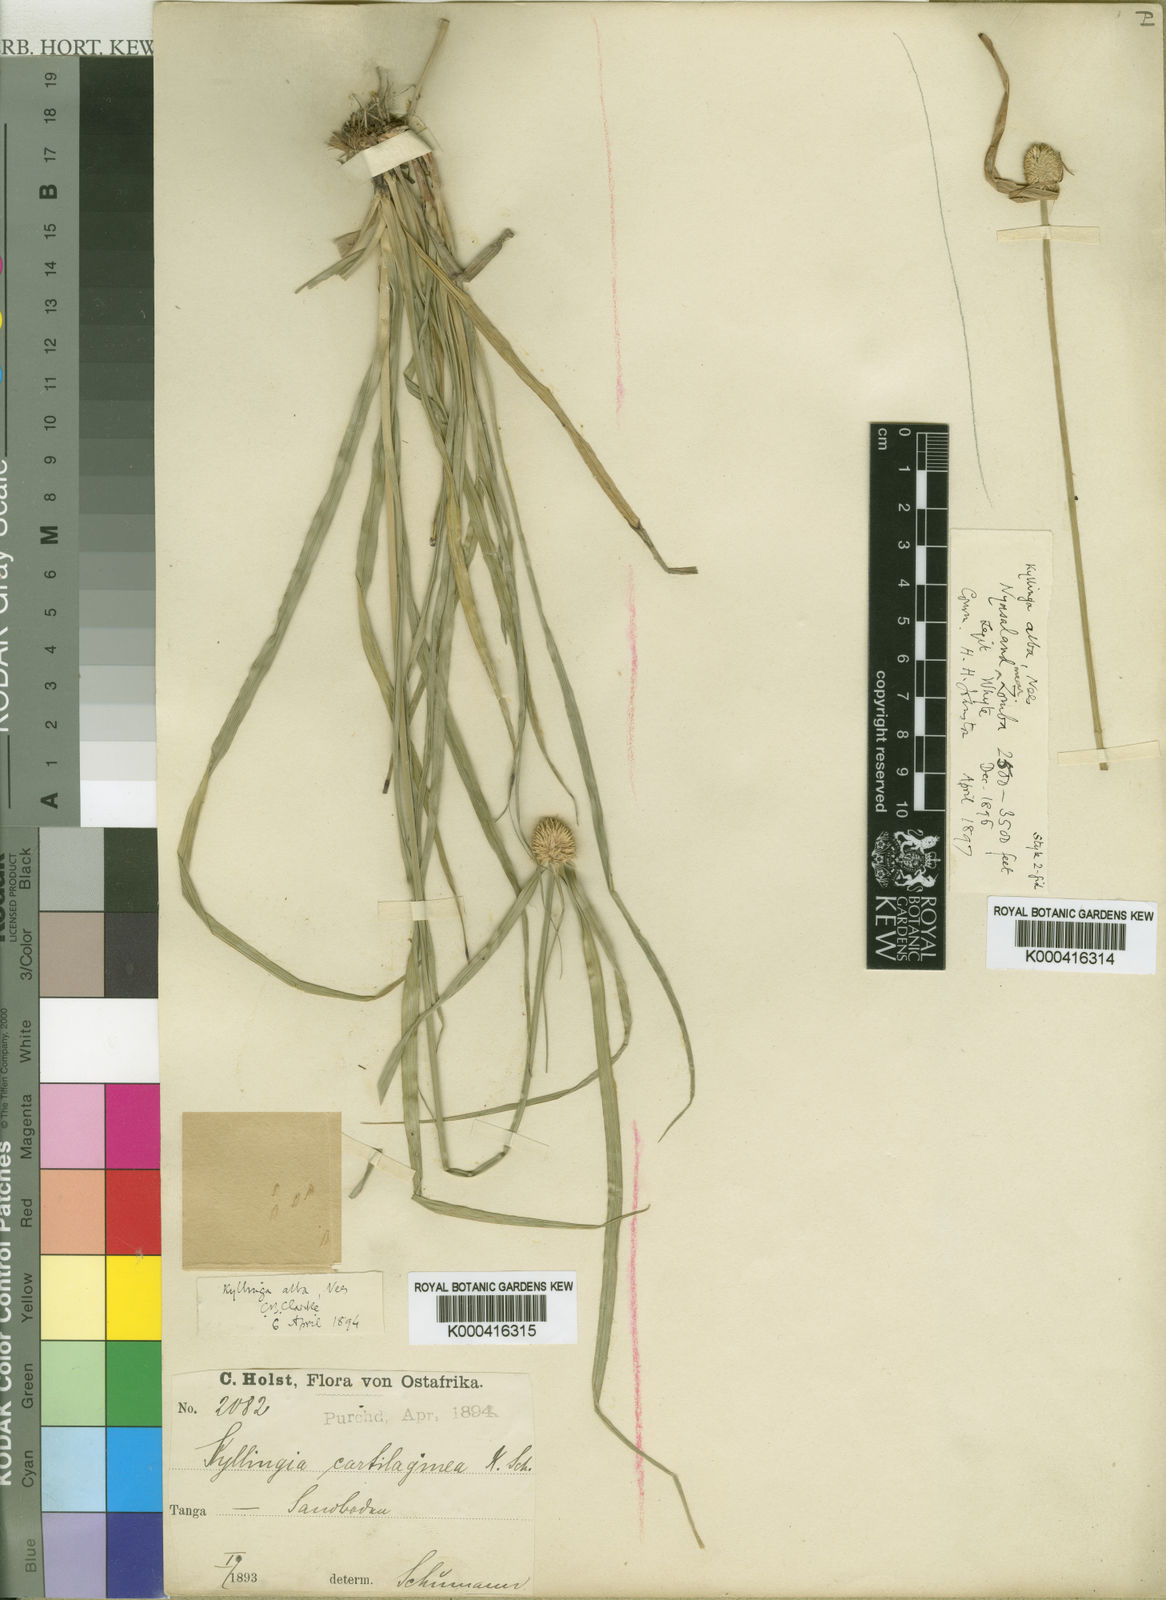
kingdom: Plantae
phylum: Tracheophyta
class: Liliopsida
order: Poales
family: Cyperaceae
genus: Cyperus
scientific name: Cyperus
